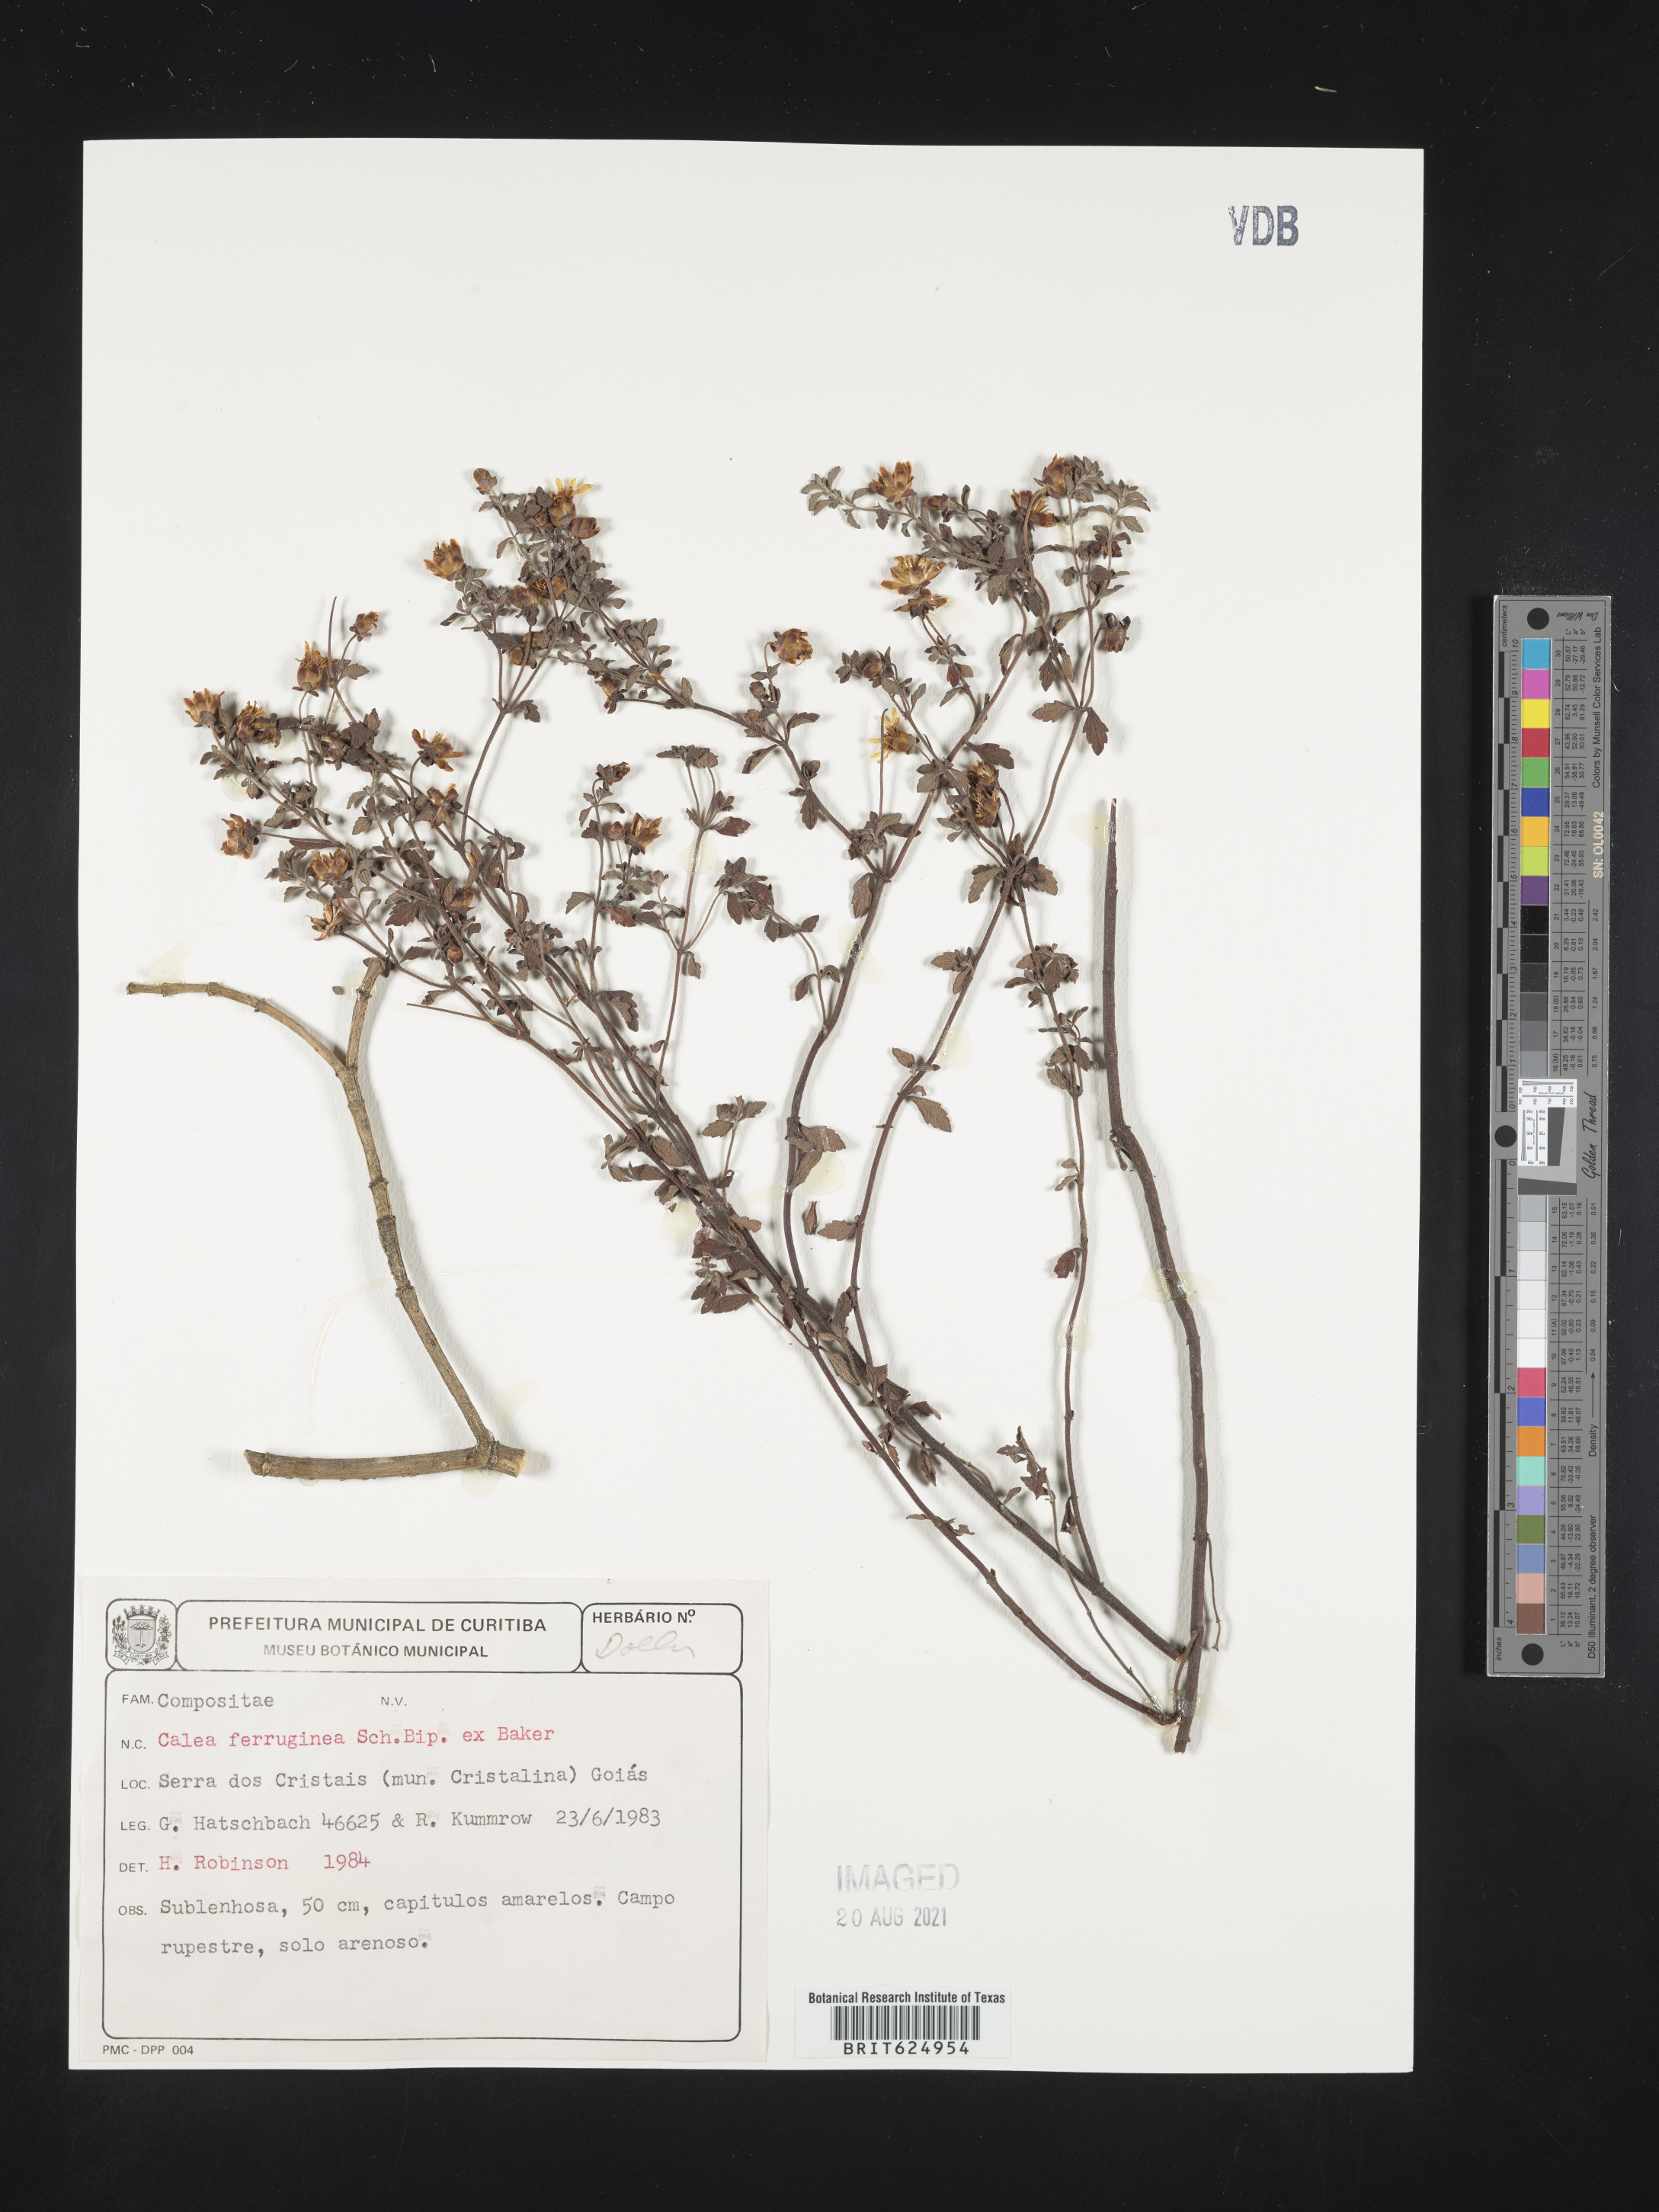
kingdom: Plantae
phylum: Tracheophyta
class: Magnoliopsida
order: Asterales
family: Asteraceae
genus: Calea
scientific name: Calea microphylla
